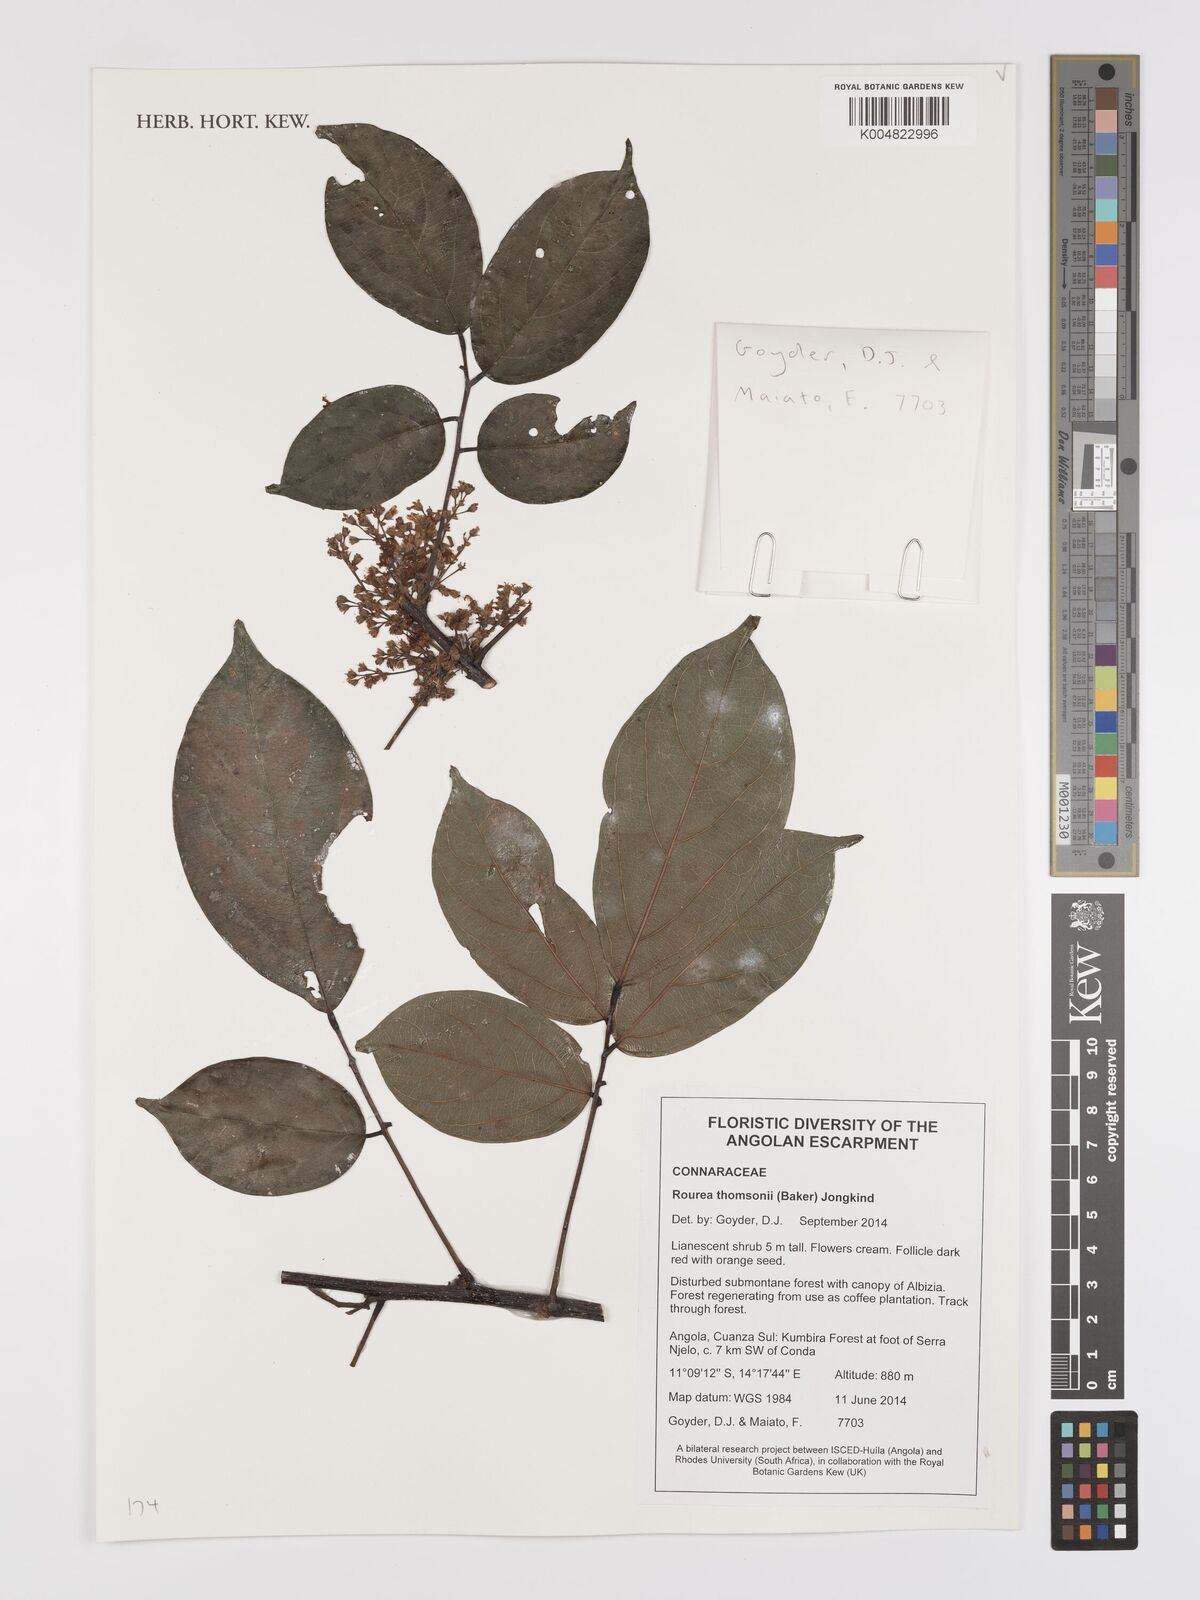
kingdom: Plantae
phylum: Tracheophyta
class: Magnoliopsida
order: Oxalidales
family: Connaraceae
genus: Rourea
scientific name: Rourea thomsonii
